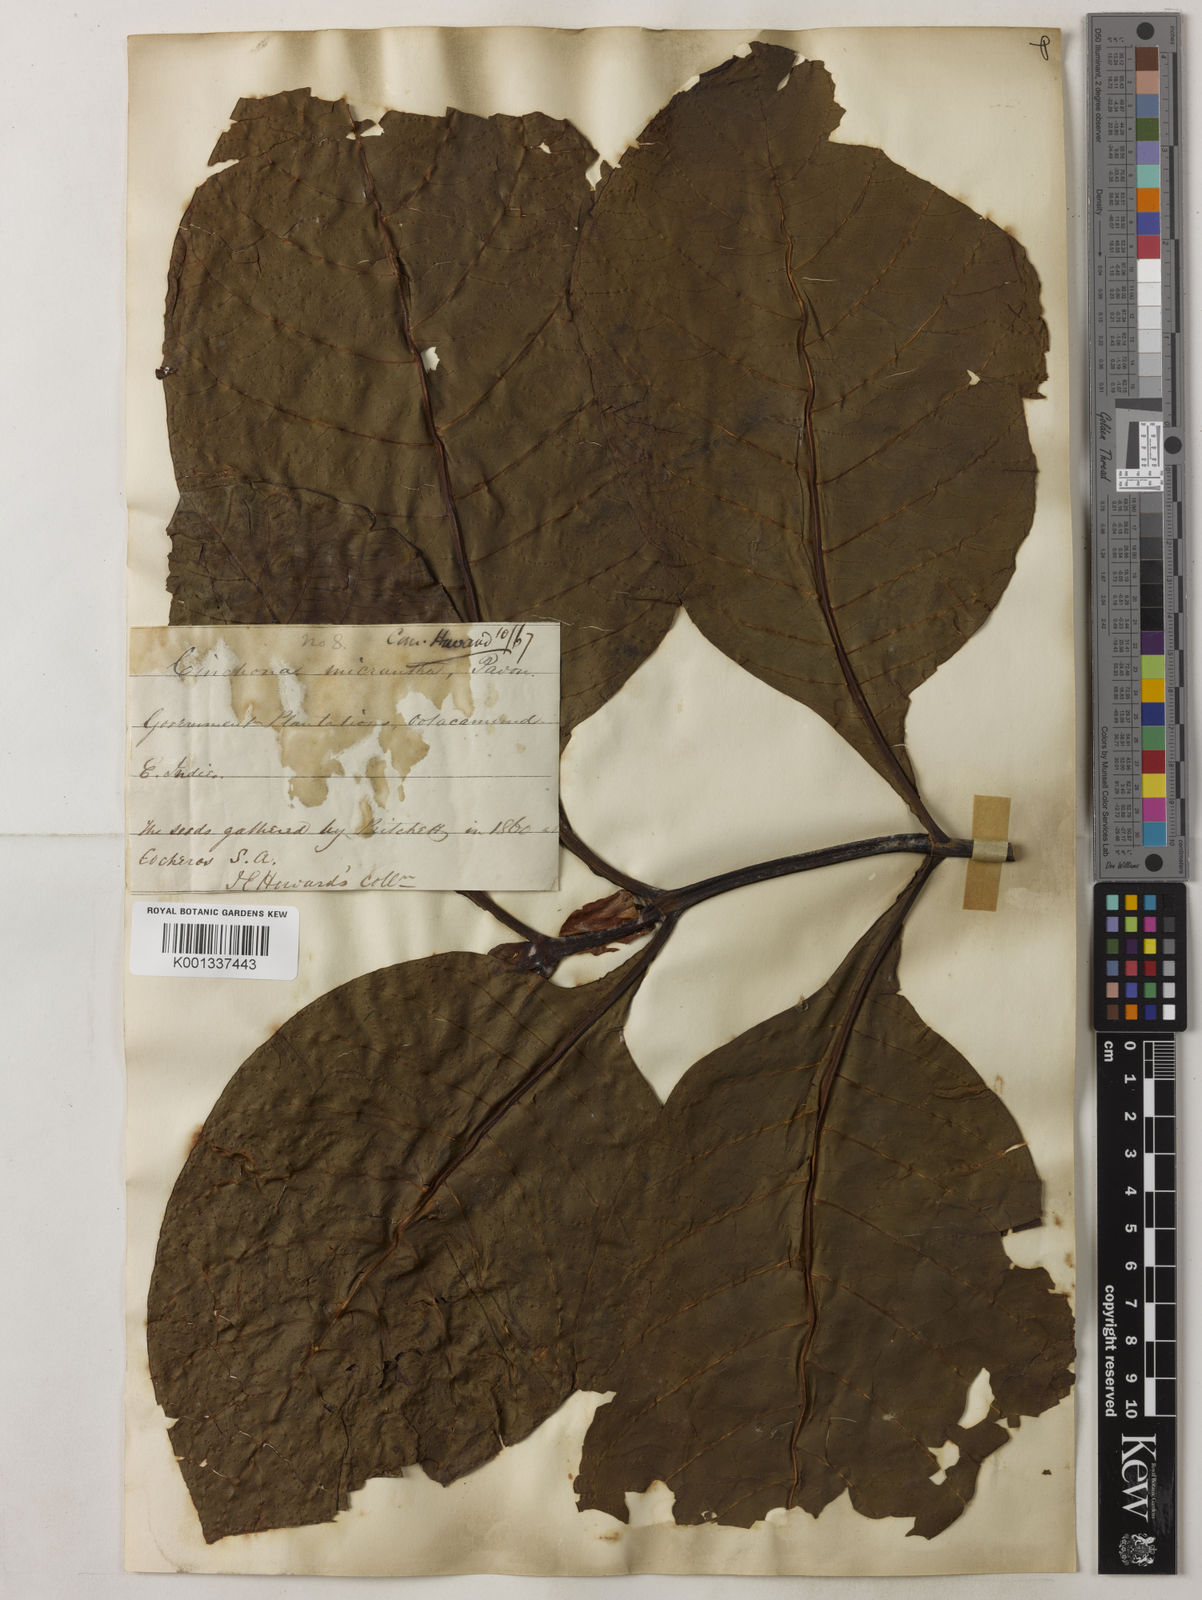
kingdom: Plantae
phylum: Tracheophyta
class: Magnoliopsida
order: Gentianales
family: Rubiaceae
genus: Cinchona
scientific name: Cinchona micrantha
